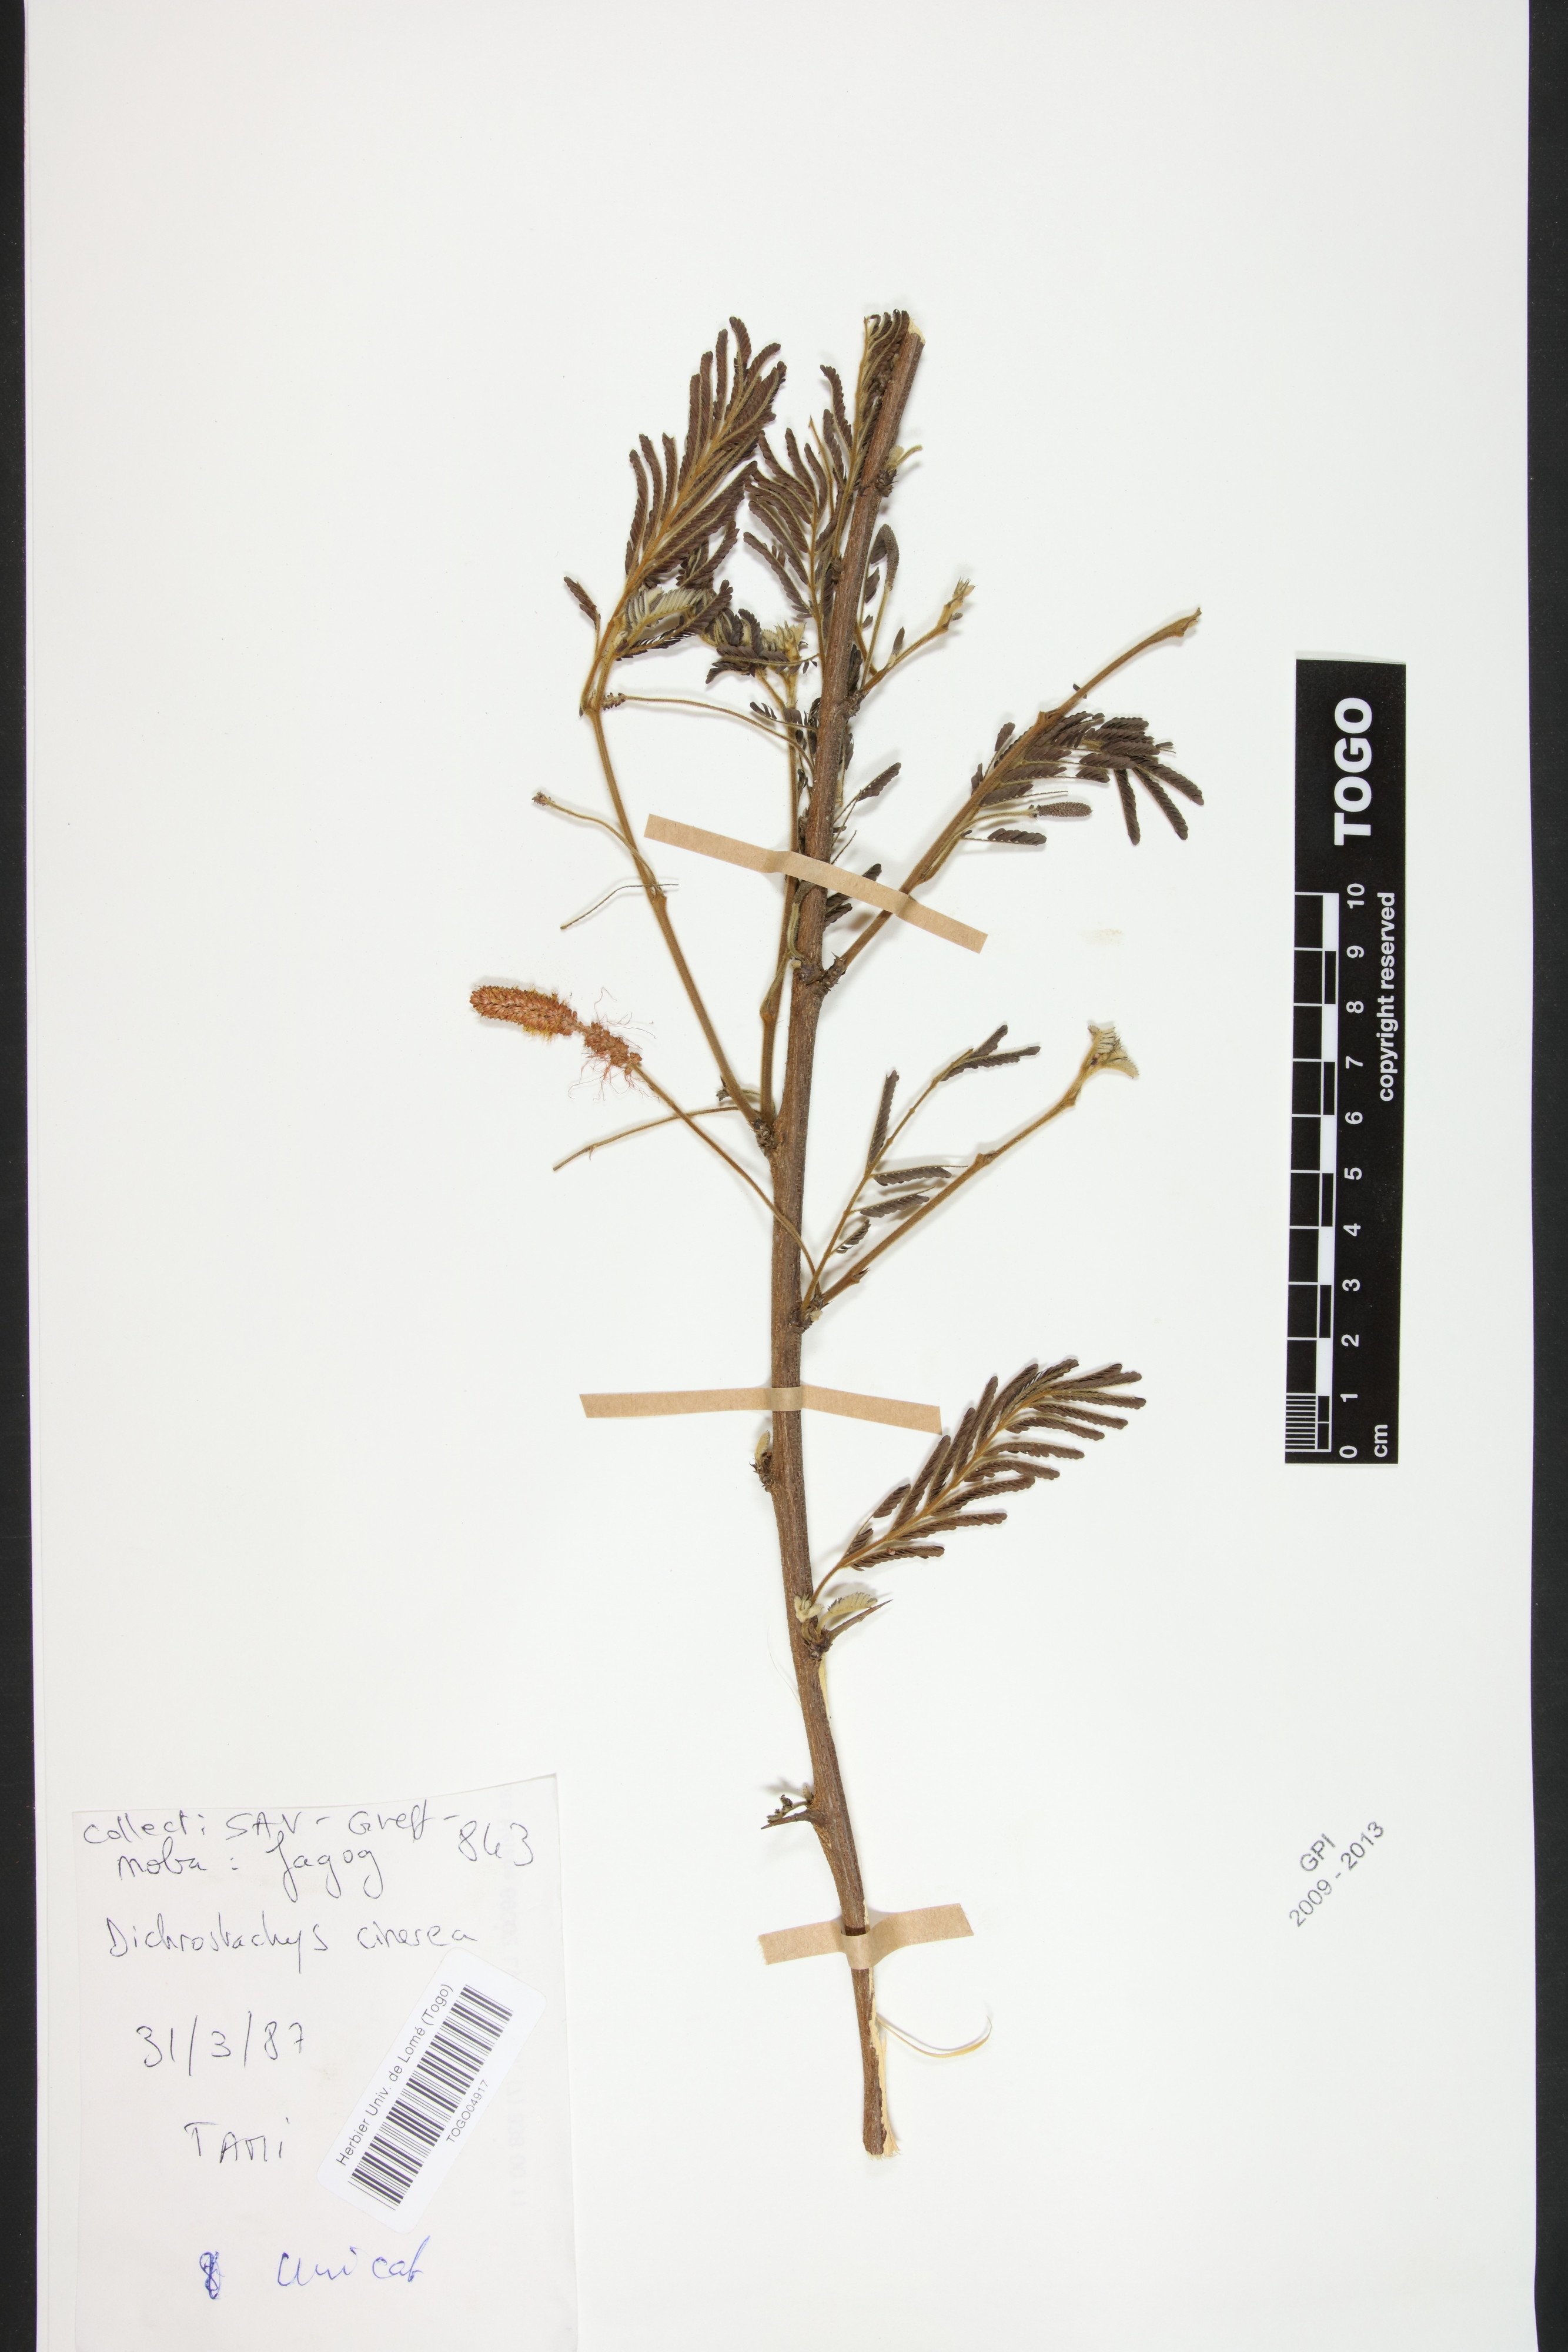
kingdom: Plantae
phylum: Tracheophyta
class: Magnoliopsida
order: Fabales
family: Fabaceae
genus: Dichrostachys
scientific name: Dichrostachys cinerea
